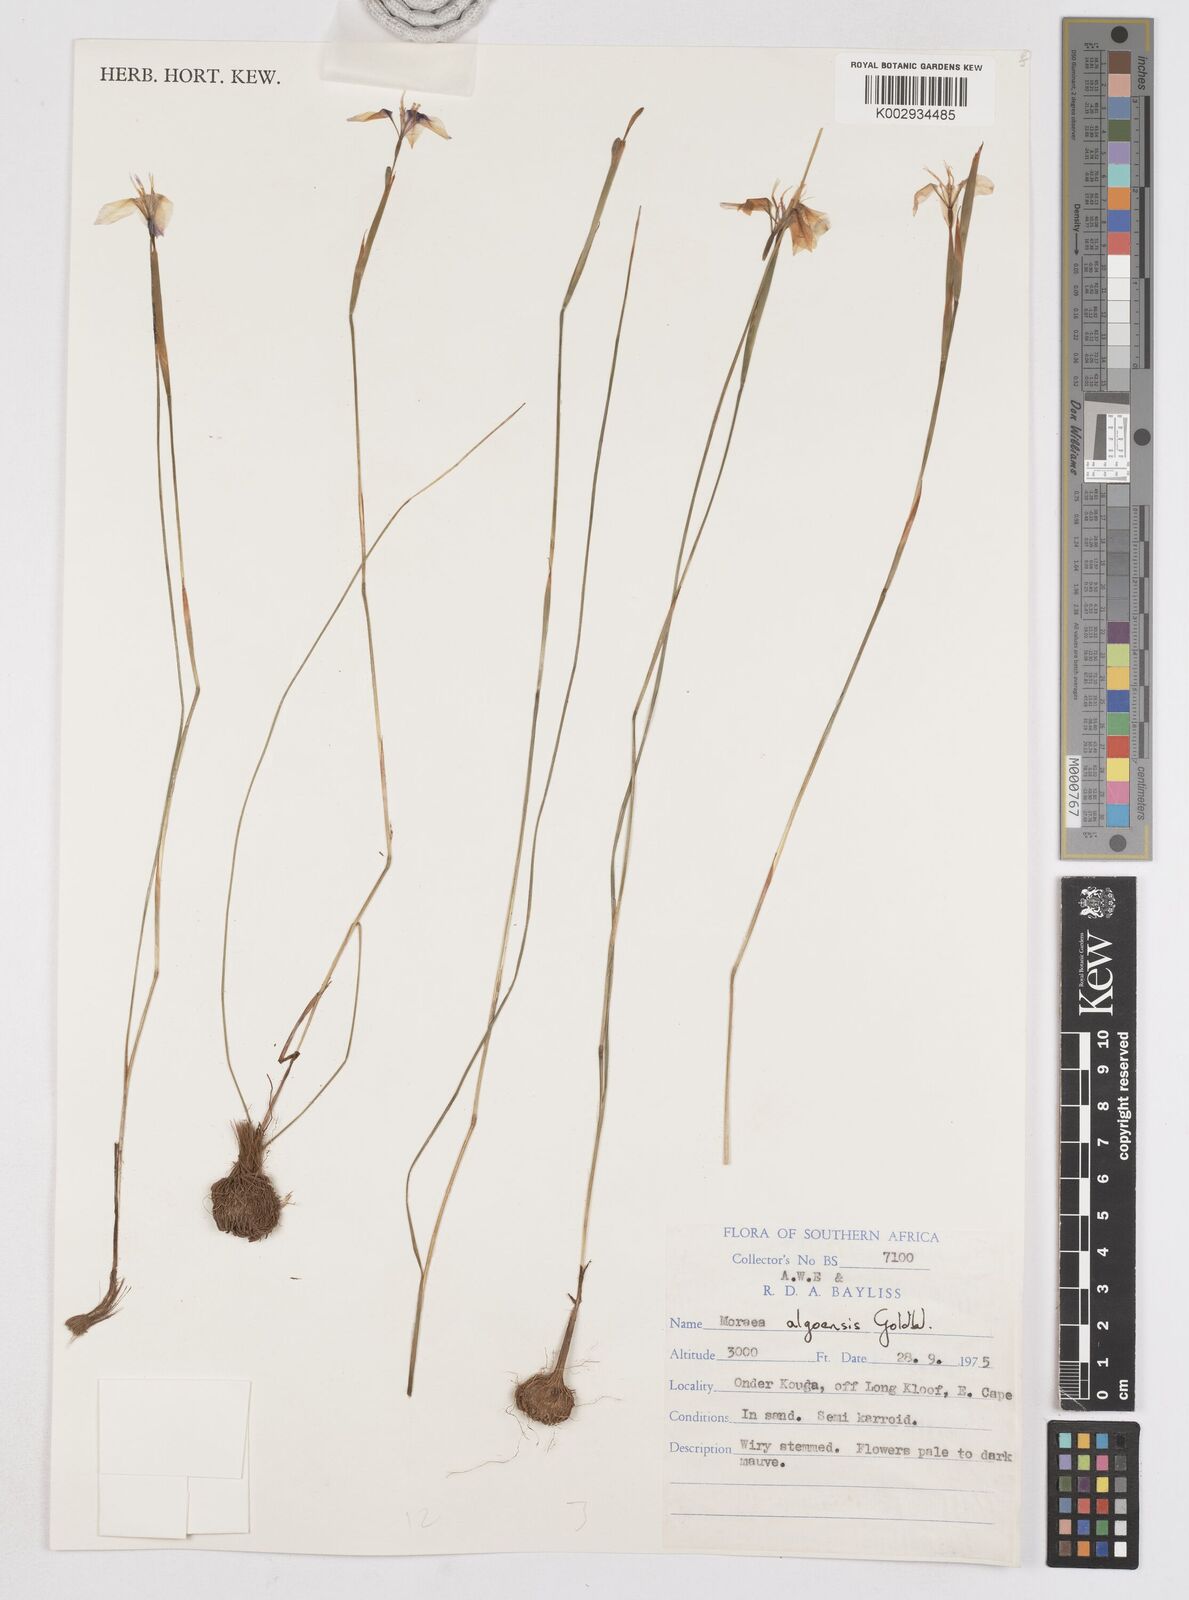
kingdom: Plantae
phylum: Tracheophyta
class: Liliopsida
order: Asparagales
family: Iridaceae
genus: Moraea
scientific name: Moraea algoensis
